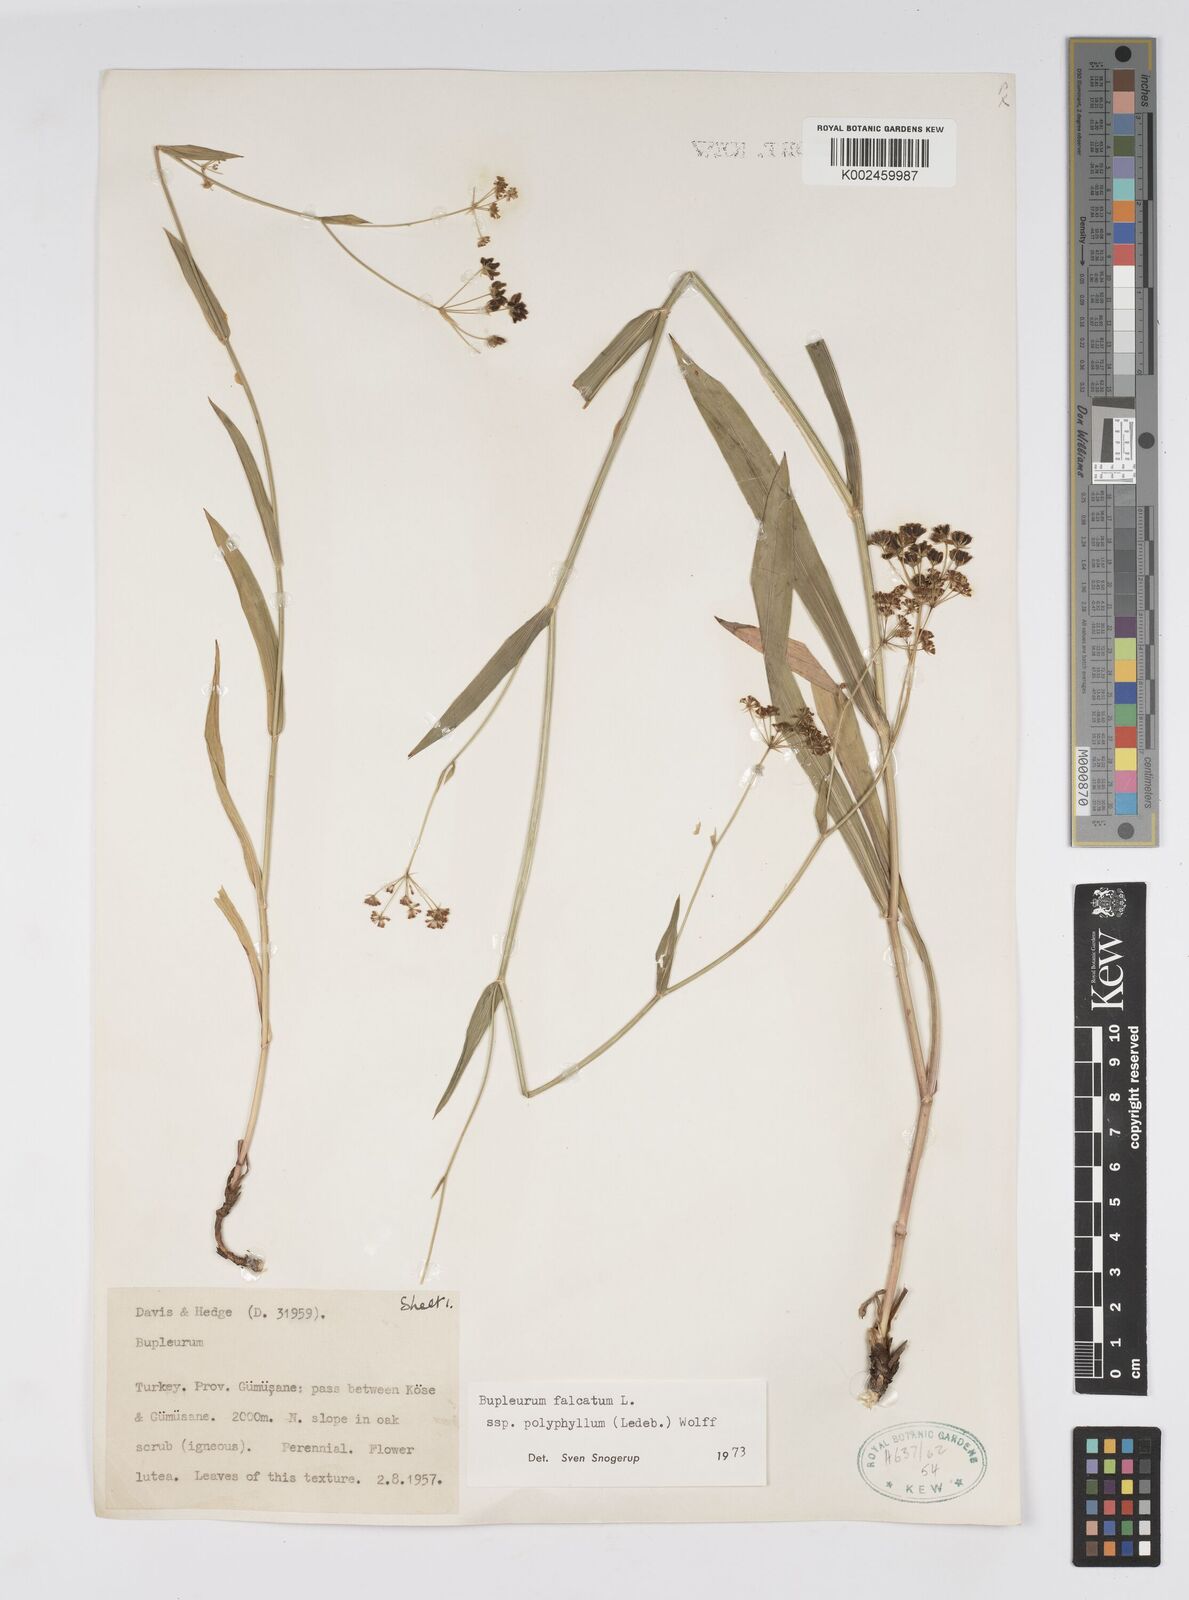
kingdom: Plantae
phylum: Tracheophyta
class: Magnoliopsida
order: Apiales
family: Apiaceae
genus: Bupleurum
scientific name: Bupleurum falcatum
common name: Sickle-leaved hare's-ear
